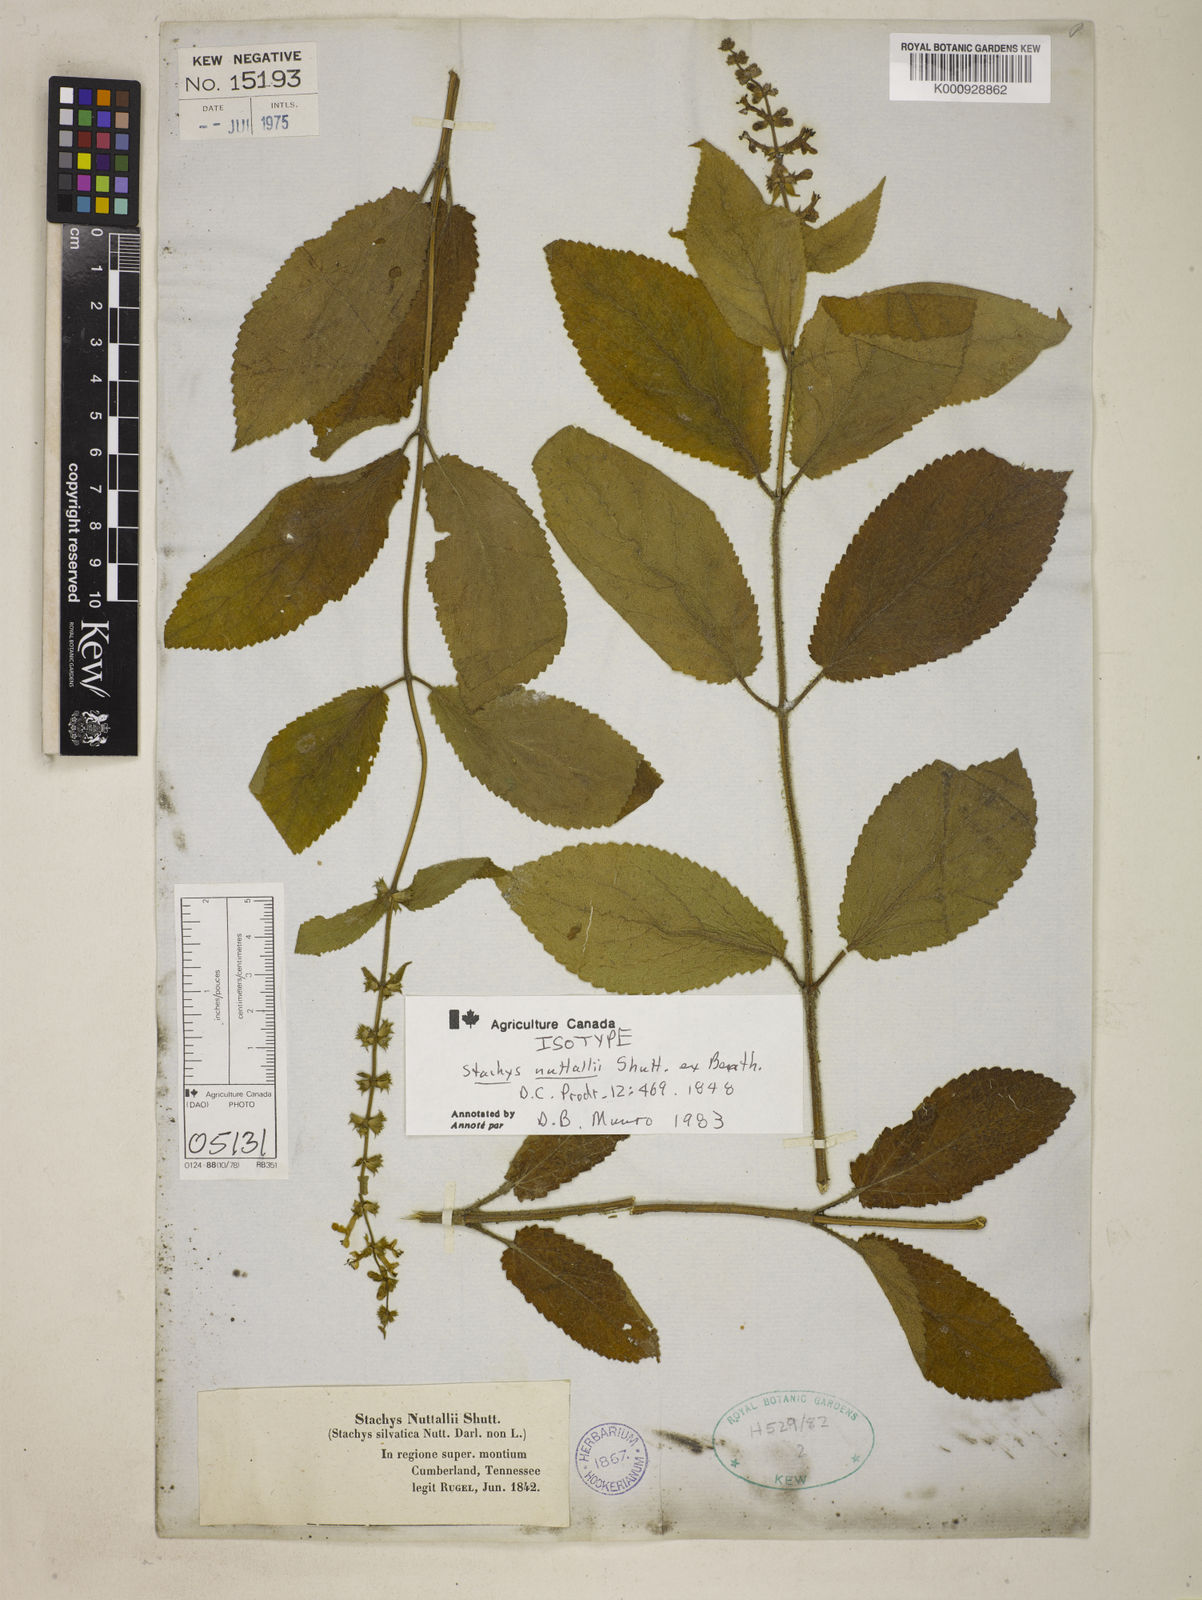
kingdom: Plantae
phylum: Tracheophyta
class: Magnoliopsida
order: Lamiales
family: Lamiaceae
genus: Stachys
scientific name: Stachys cordata
